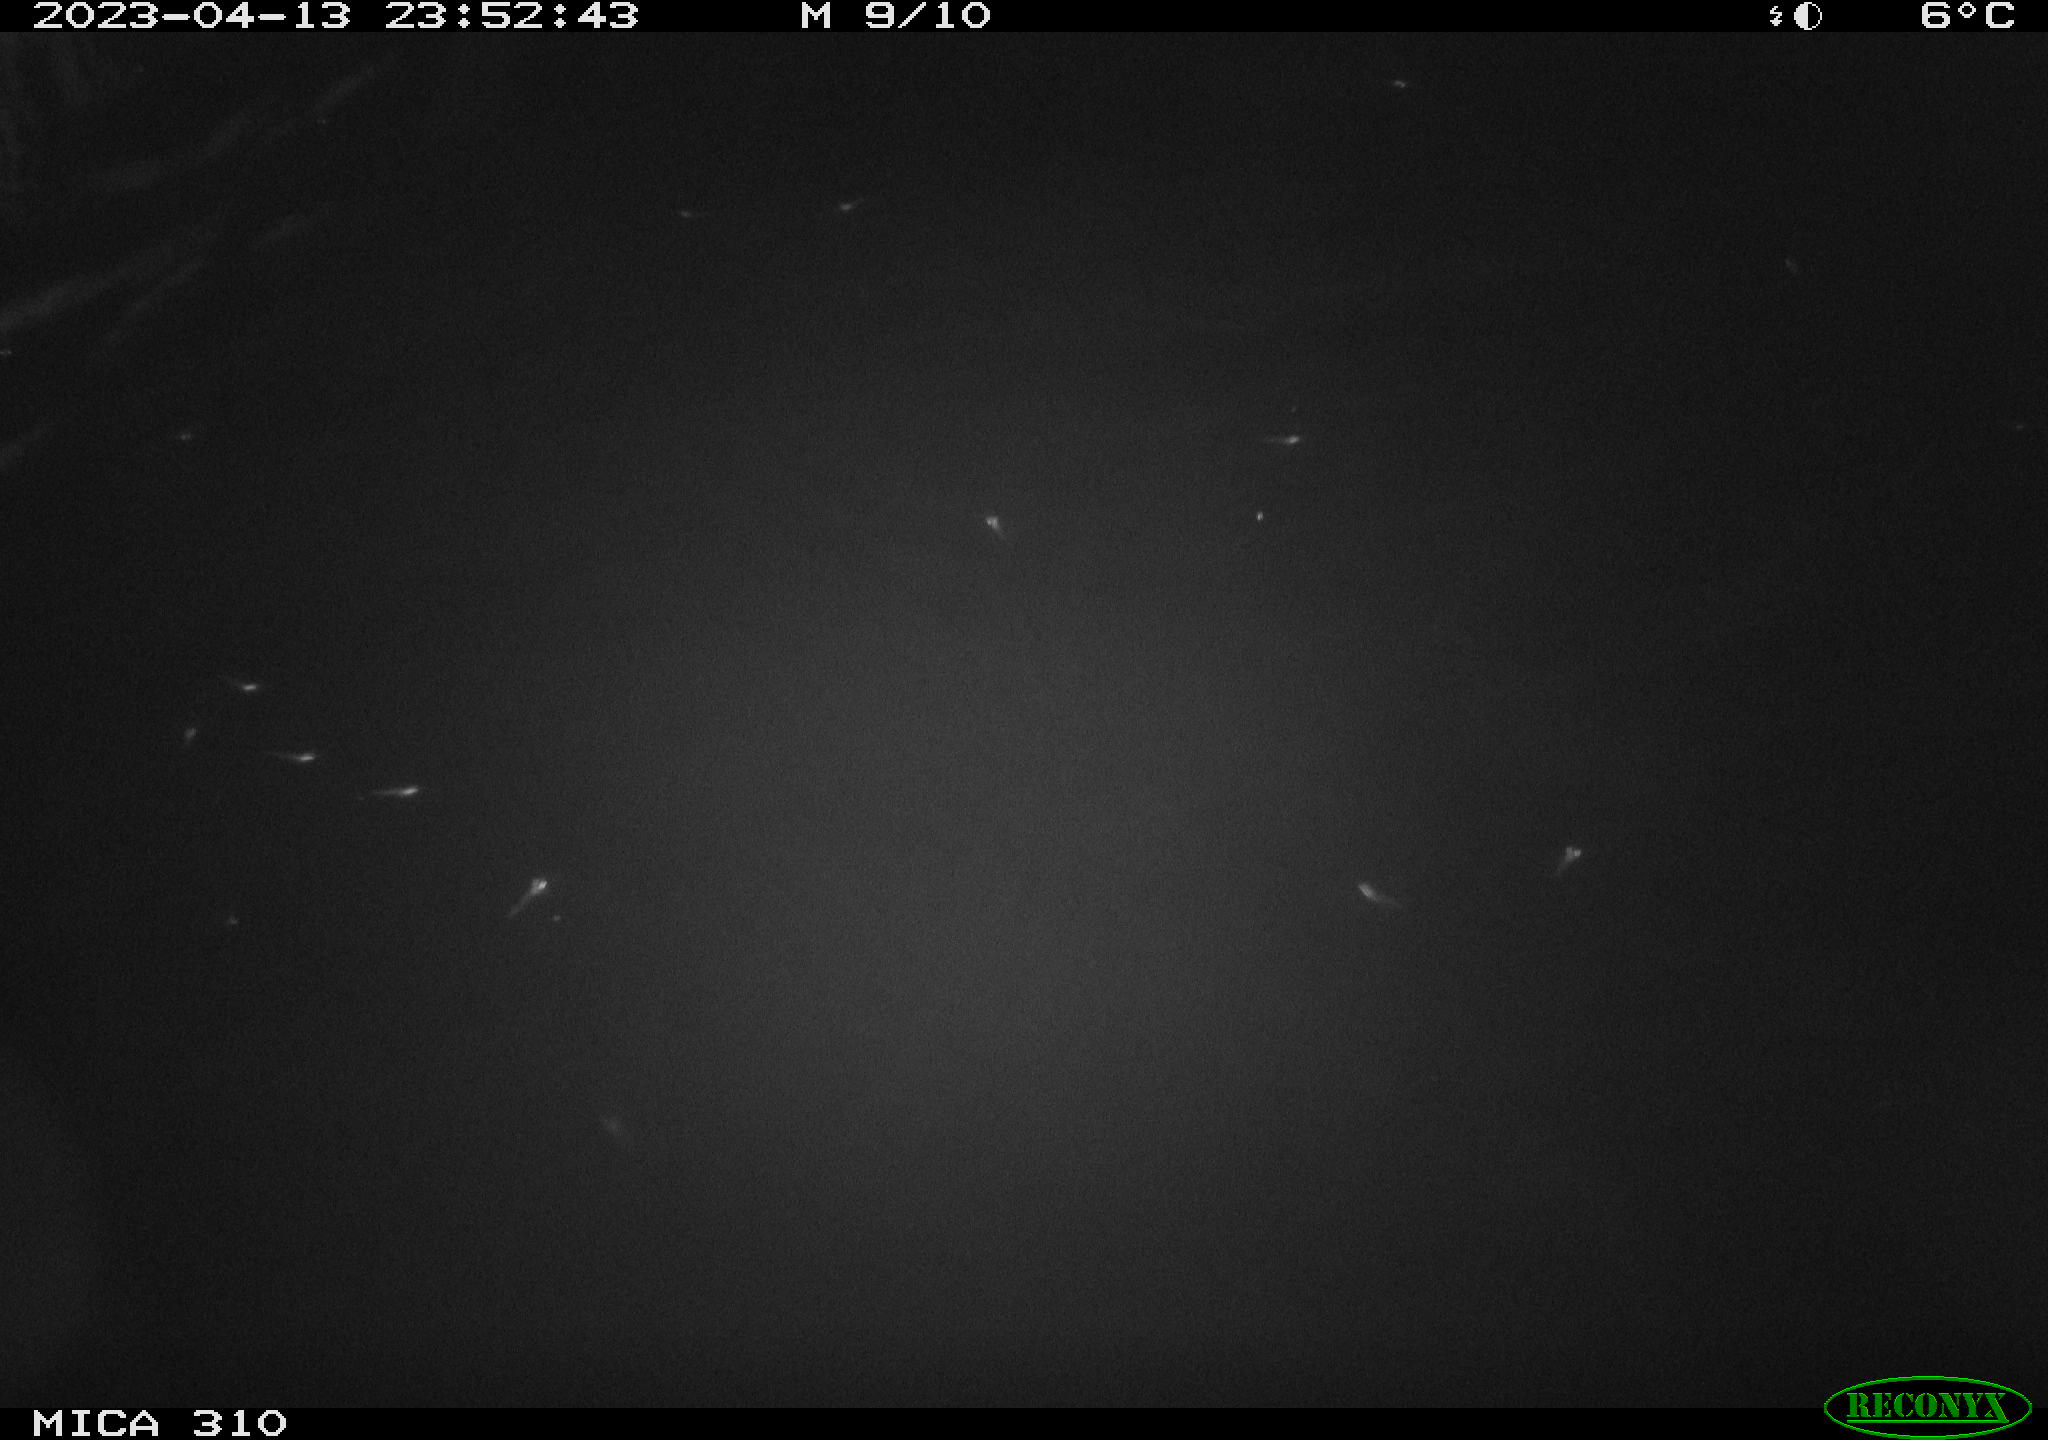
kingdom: Animalia
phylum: Chordata
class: Mammalia
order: Rodentia
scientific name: Rodentia
